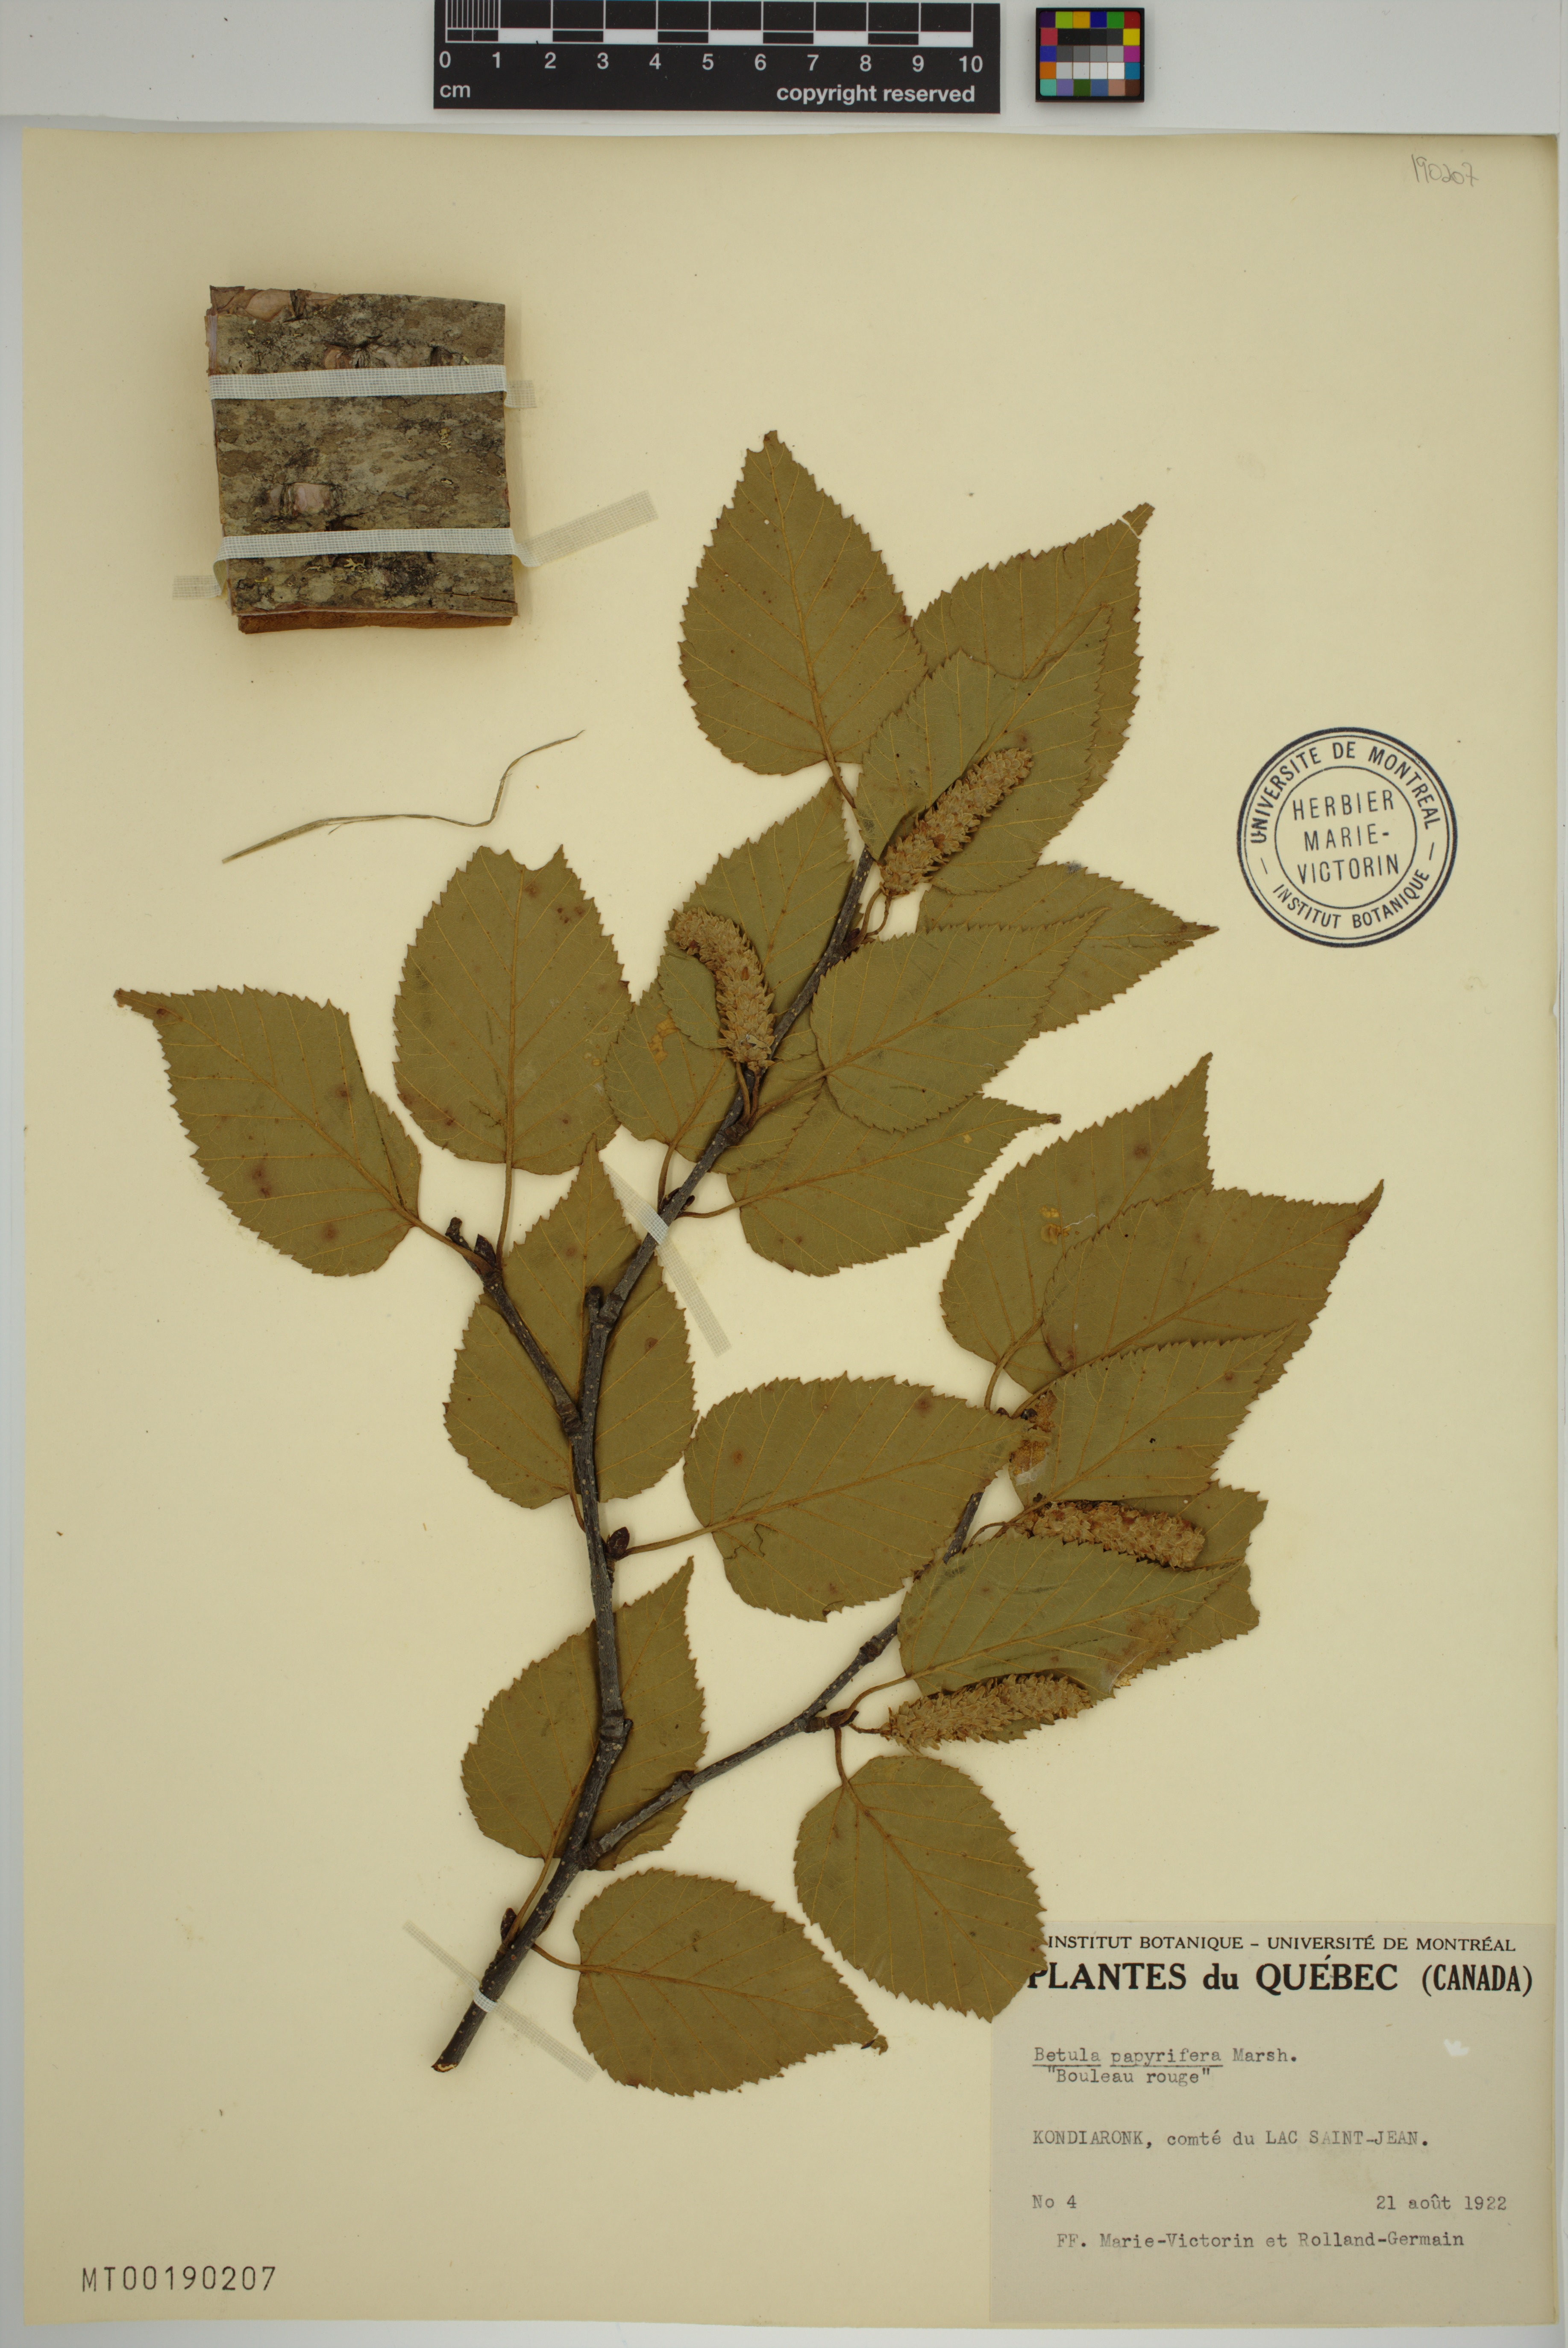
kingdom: Plantae
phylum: Tracheophyta
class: Magnoliopsida
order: Fagales
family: Betulaceae
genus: Betula
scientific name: Betula papyrifera
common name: Paper birch
